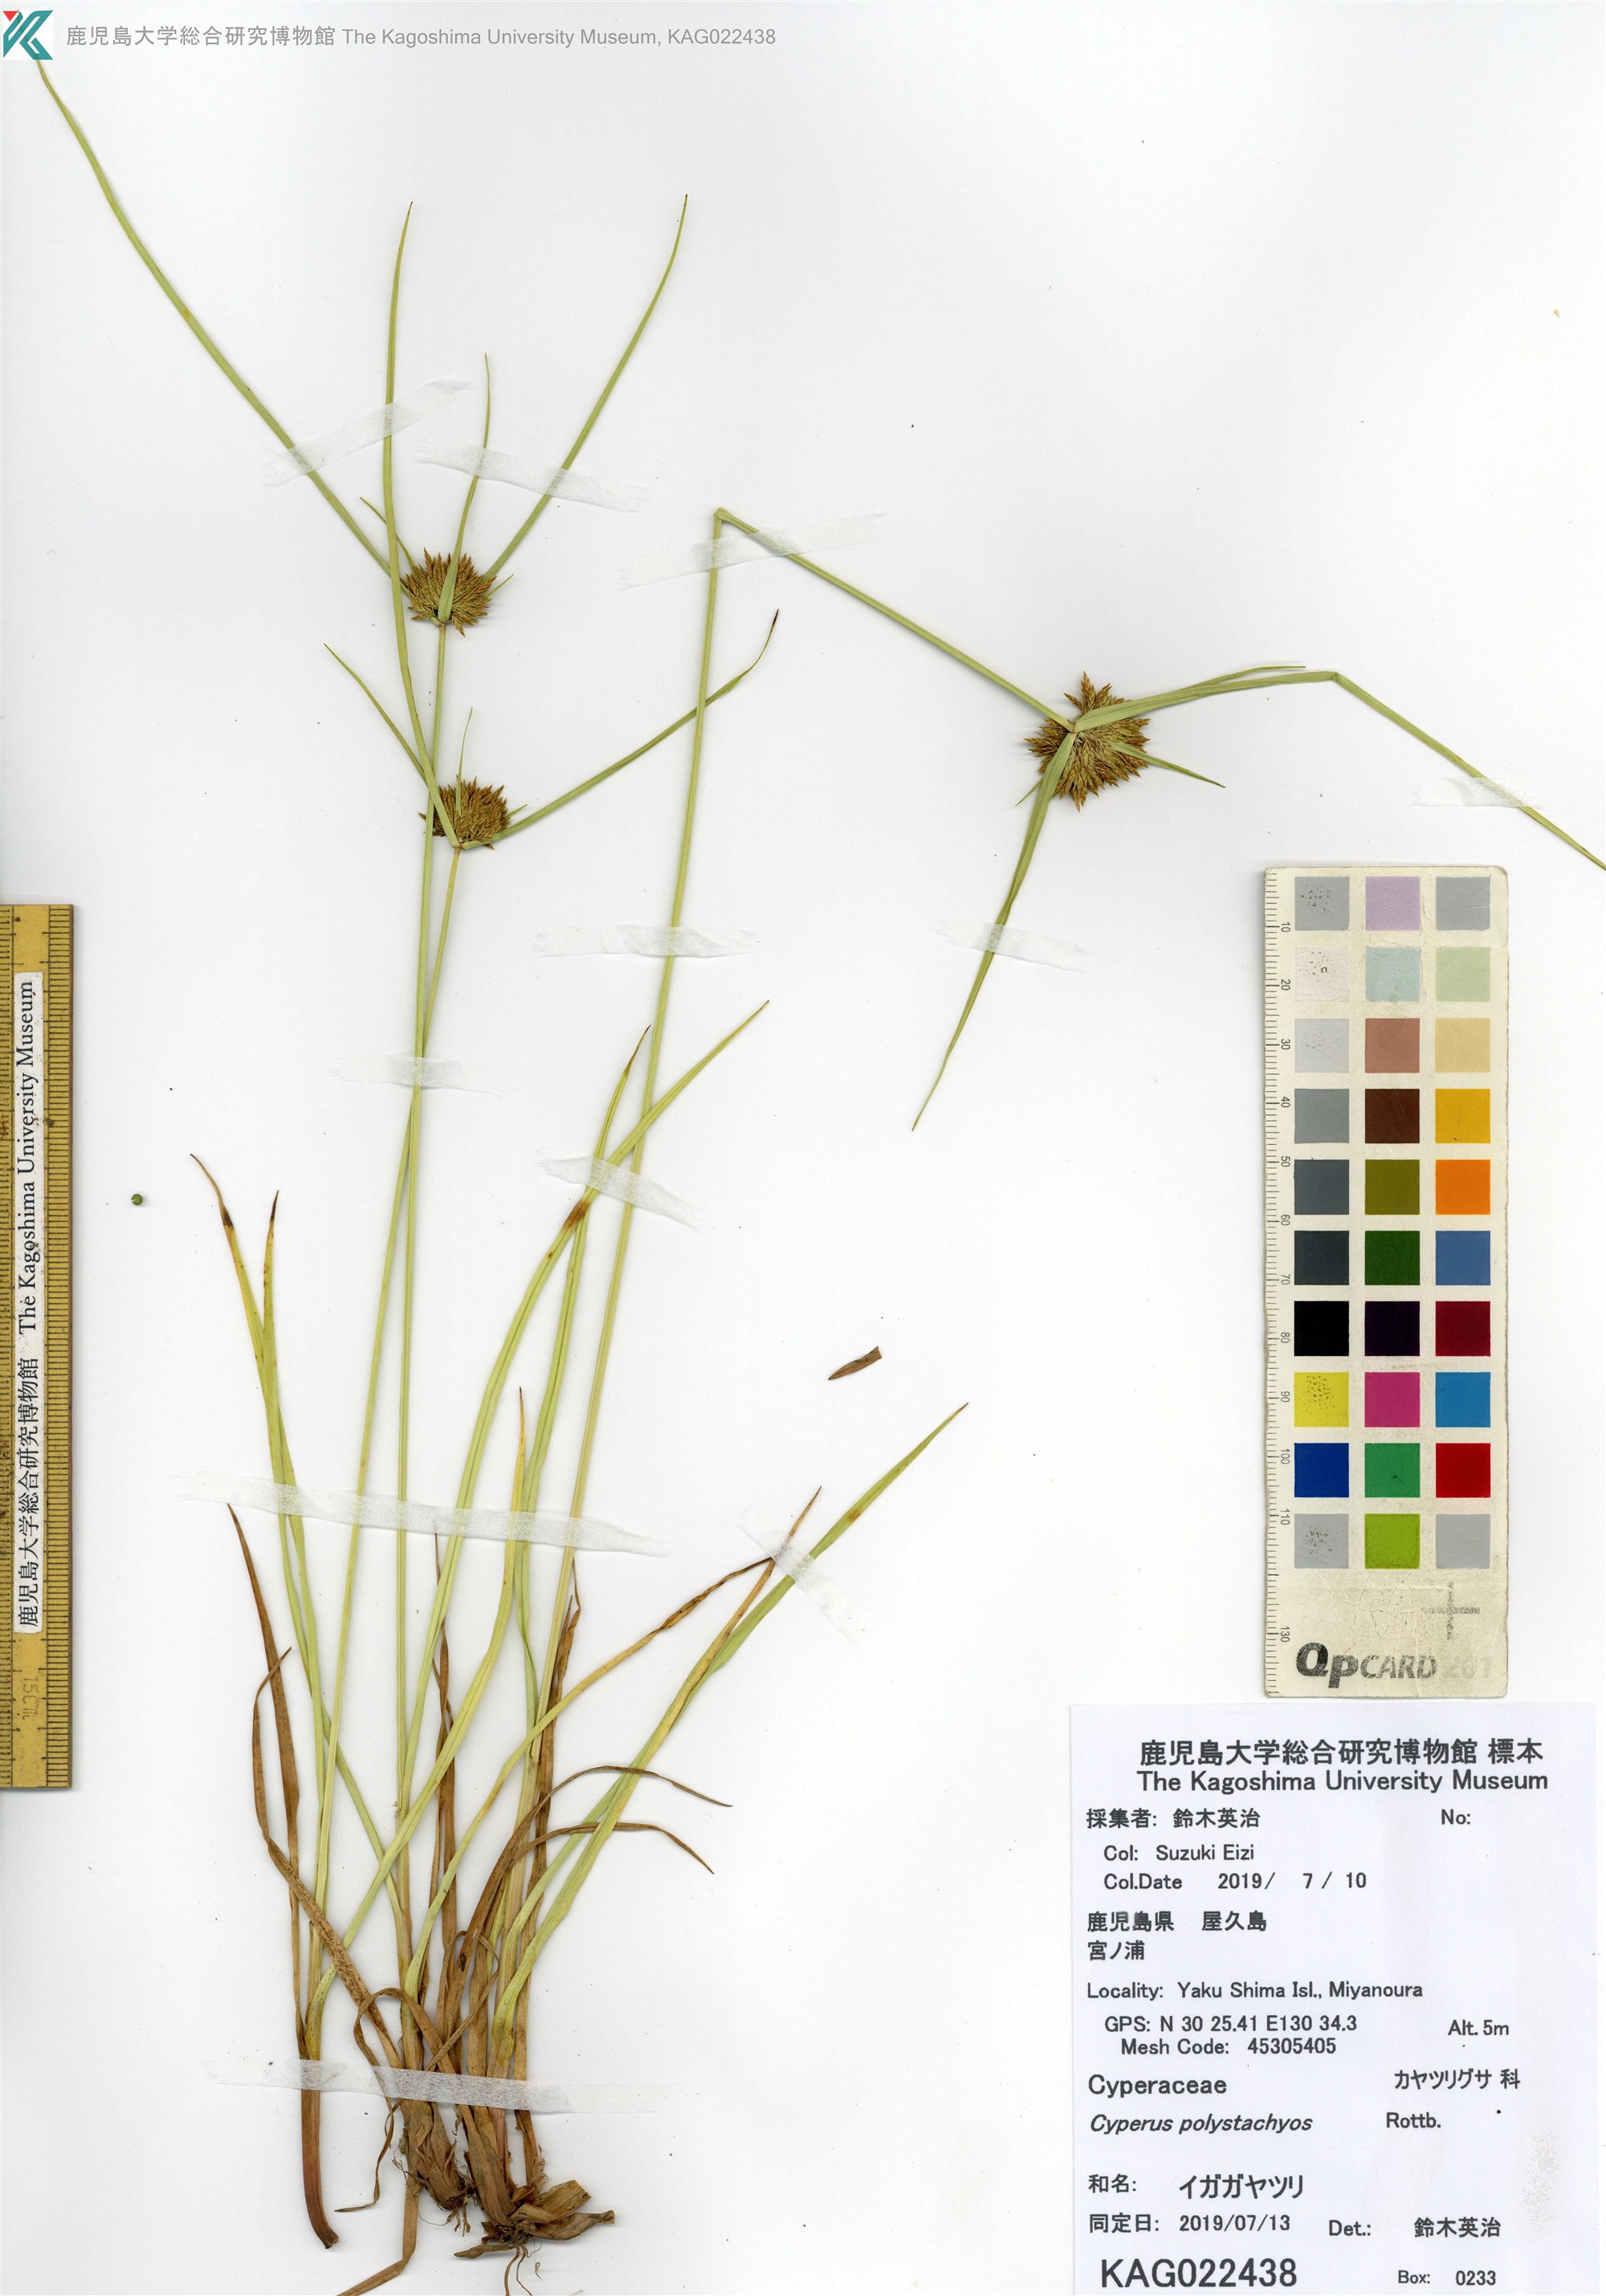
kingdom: Plantae
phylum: Tracheophyta
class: Liliopsida
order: Poales
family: Cyperaceae
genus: Cyperus
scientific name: Cyperus polystachyos
